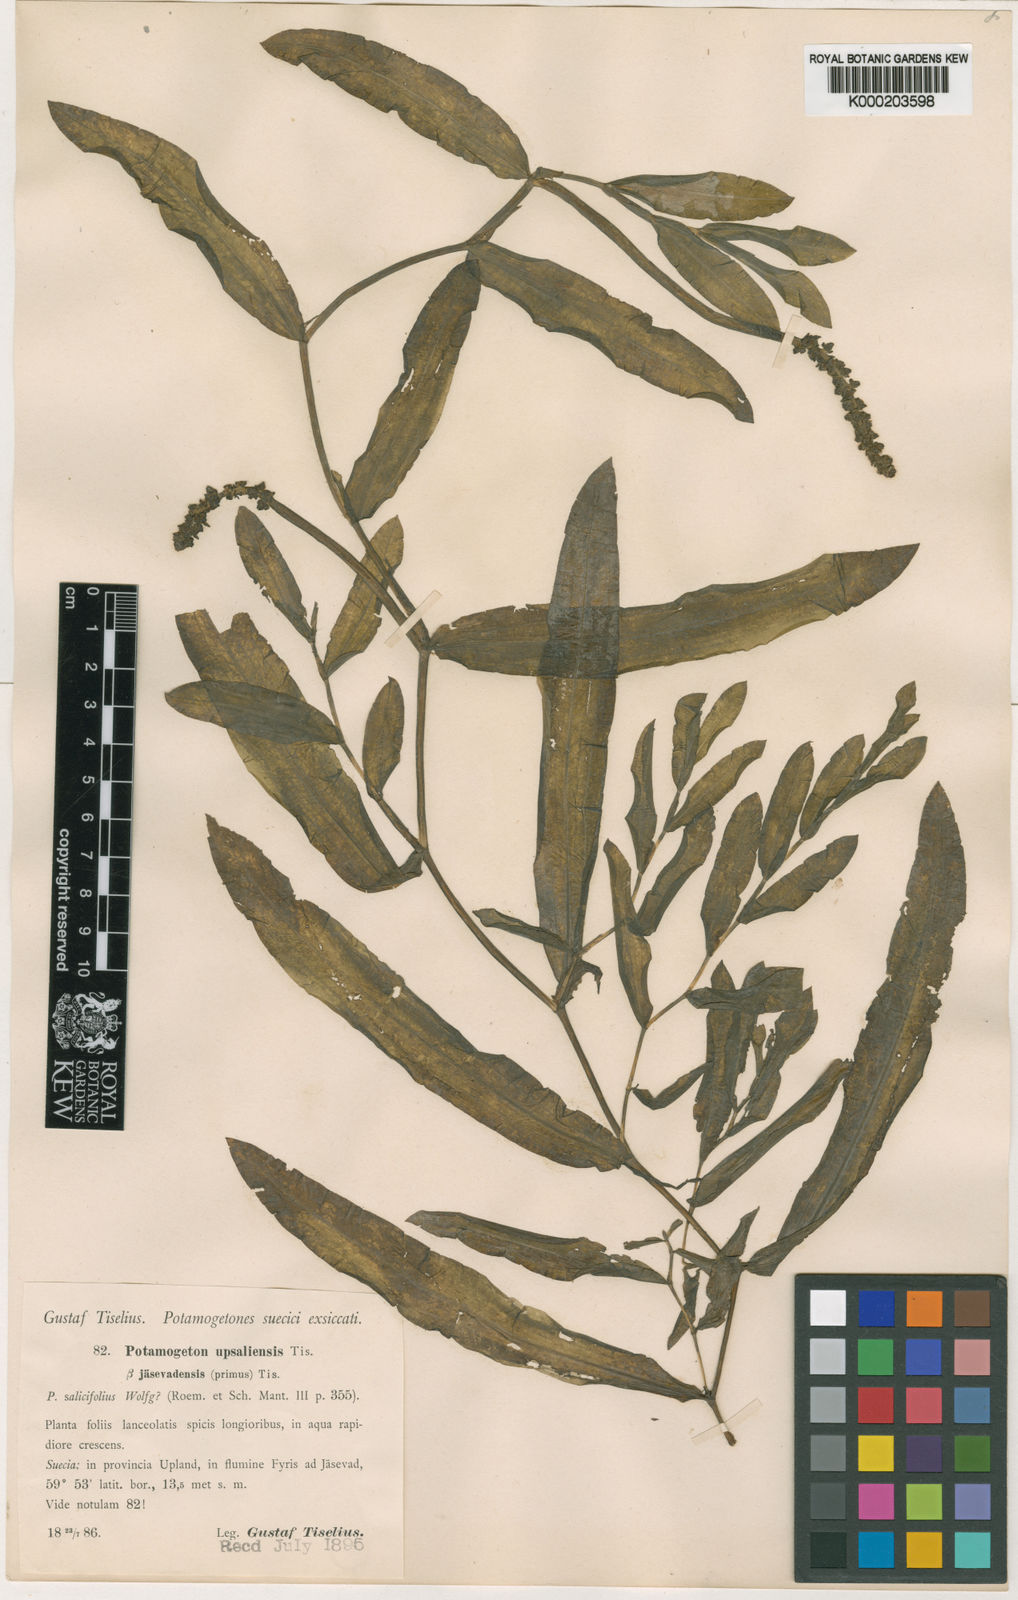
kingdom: Plantae
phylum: Tracheophyta
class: Liliopsida
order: Alismatales
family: Potamogetonaceae
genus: Potamogeton
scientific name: Potamogeton salicifolius
